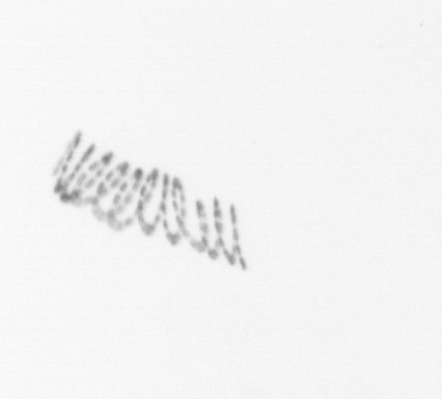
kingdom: Chromista
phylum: Ochrophyta
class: Bacillariophyceae
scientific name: Bacillariophyceae
